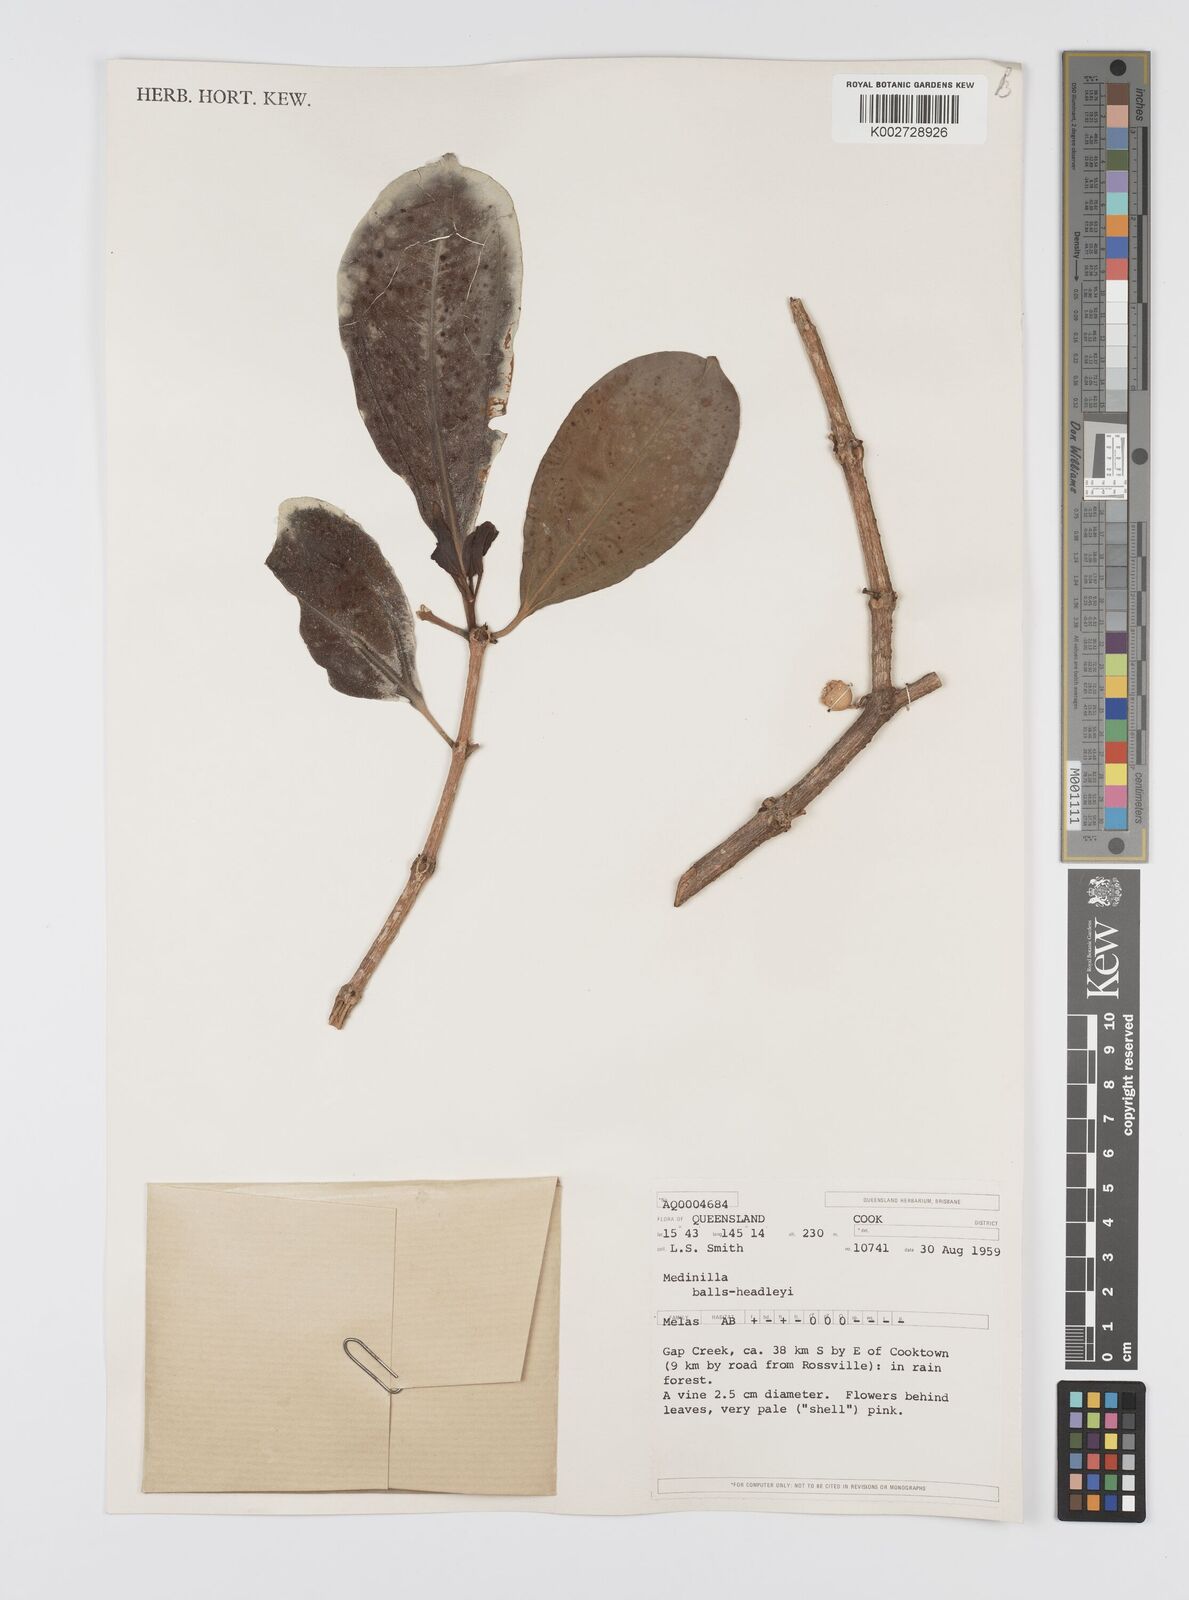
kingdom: Plantae
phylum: Tracheophyta
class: Magnoliopsida
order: Myrtales
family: Melastomataceae
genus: Medinilla
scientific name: Medinilla balls-headleyi
